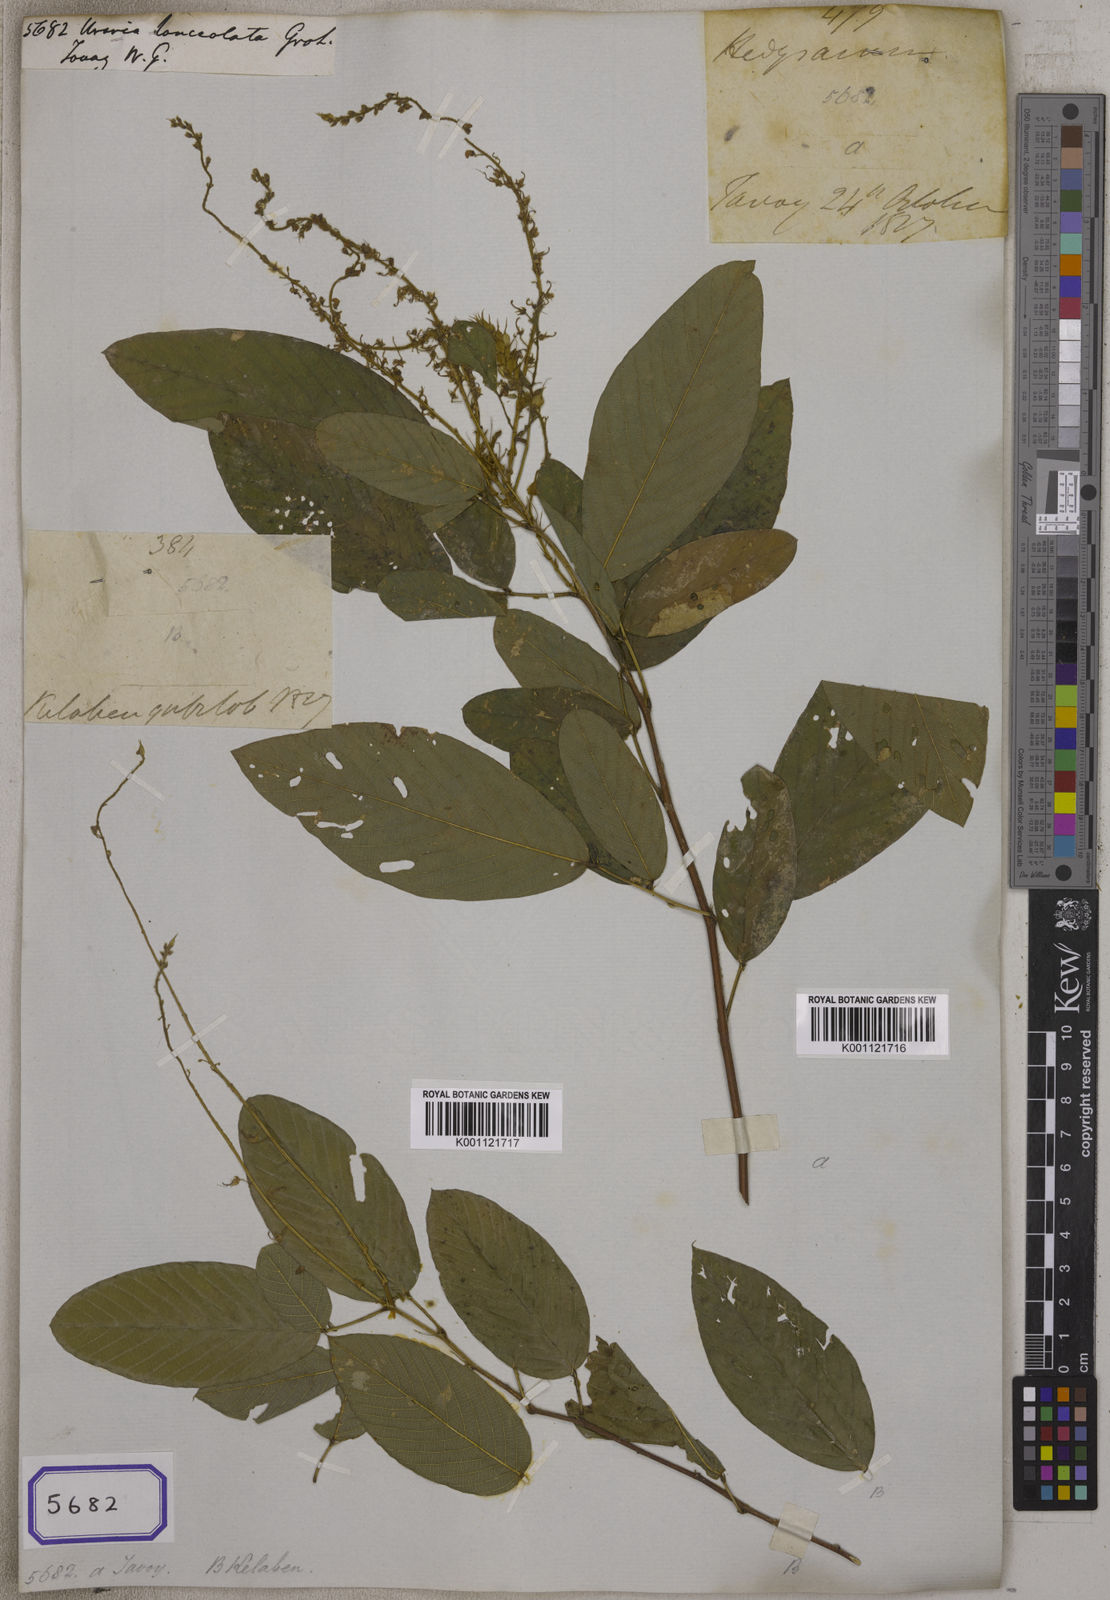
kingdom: Plantae
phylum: Tracheophyta
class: Magnoliopsida
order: Fabales
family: Fabaceae
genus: Uraria
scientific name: Uraria rufescens
